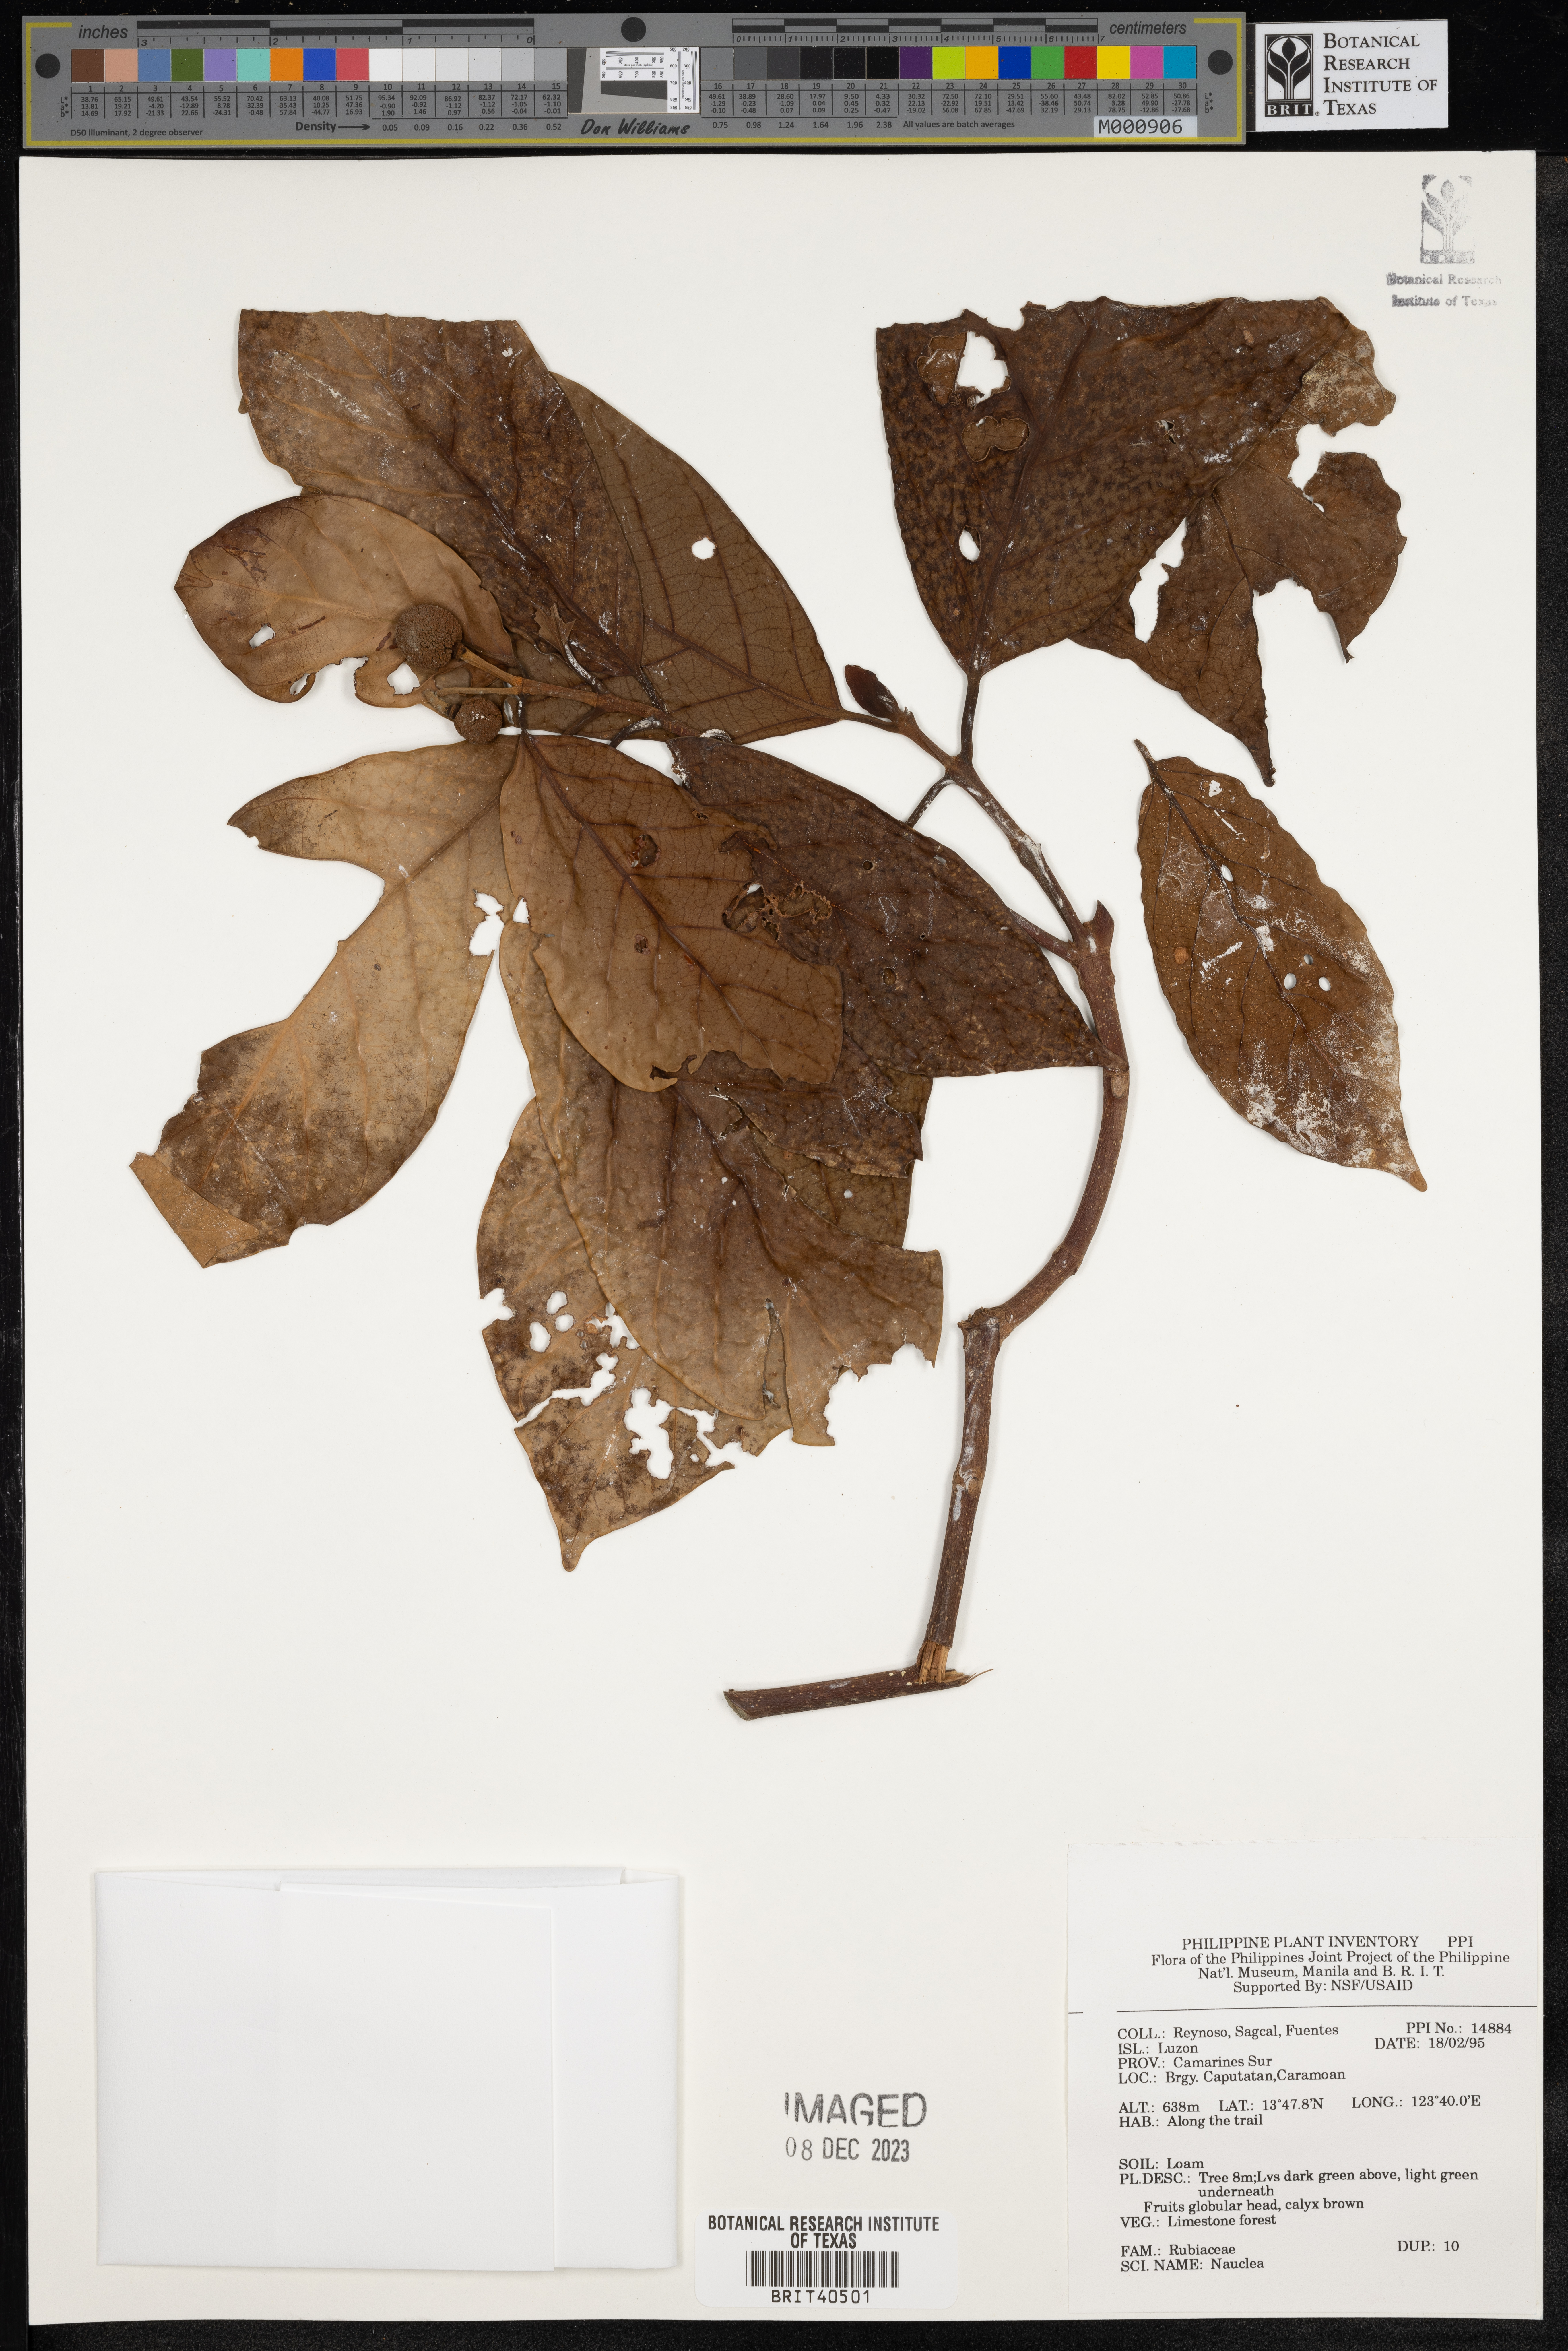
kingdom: Plantae
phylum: Tracheophyta
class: Magnoliopsida
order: Gentianales
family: Rubiaceae
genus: Nauclea
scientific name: Nauclea
